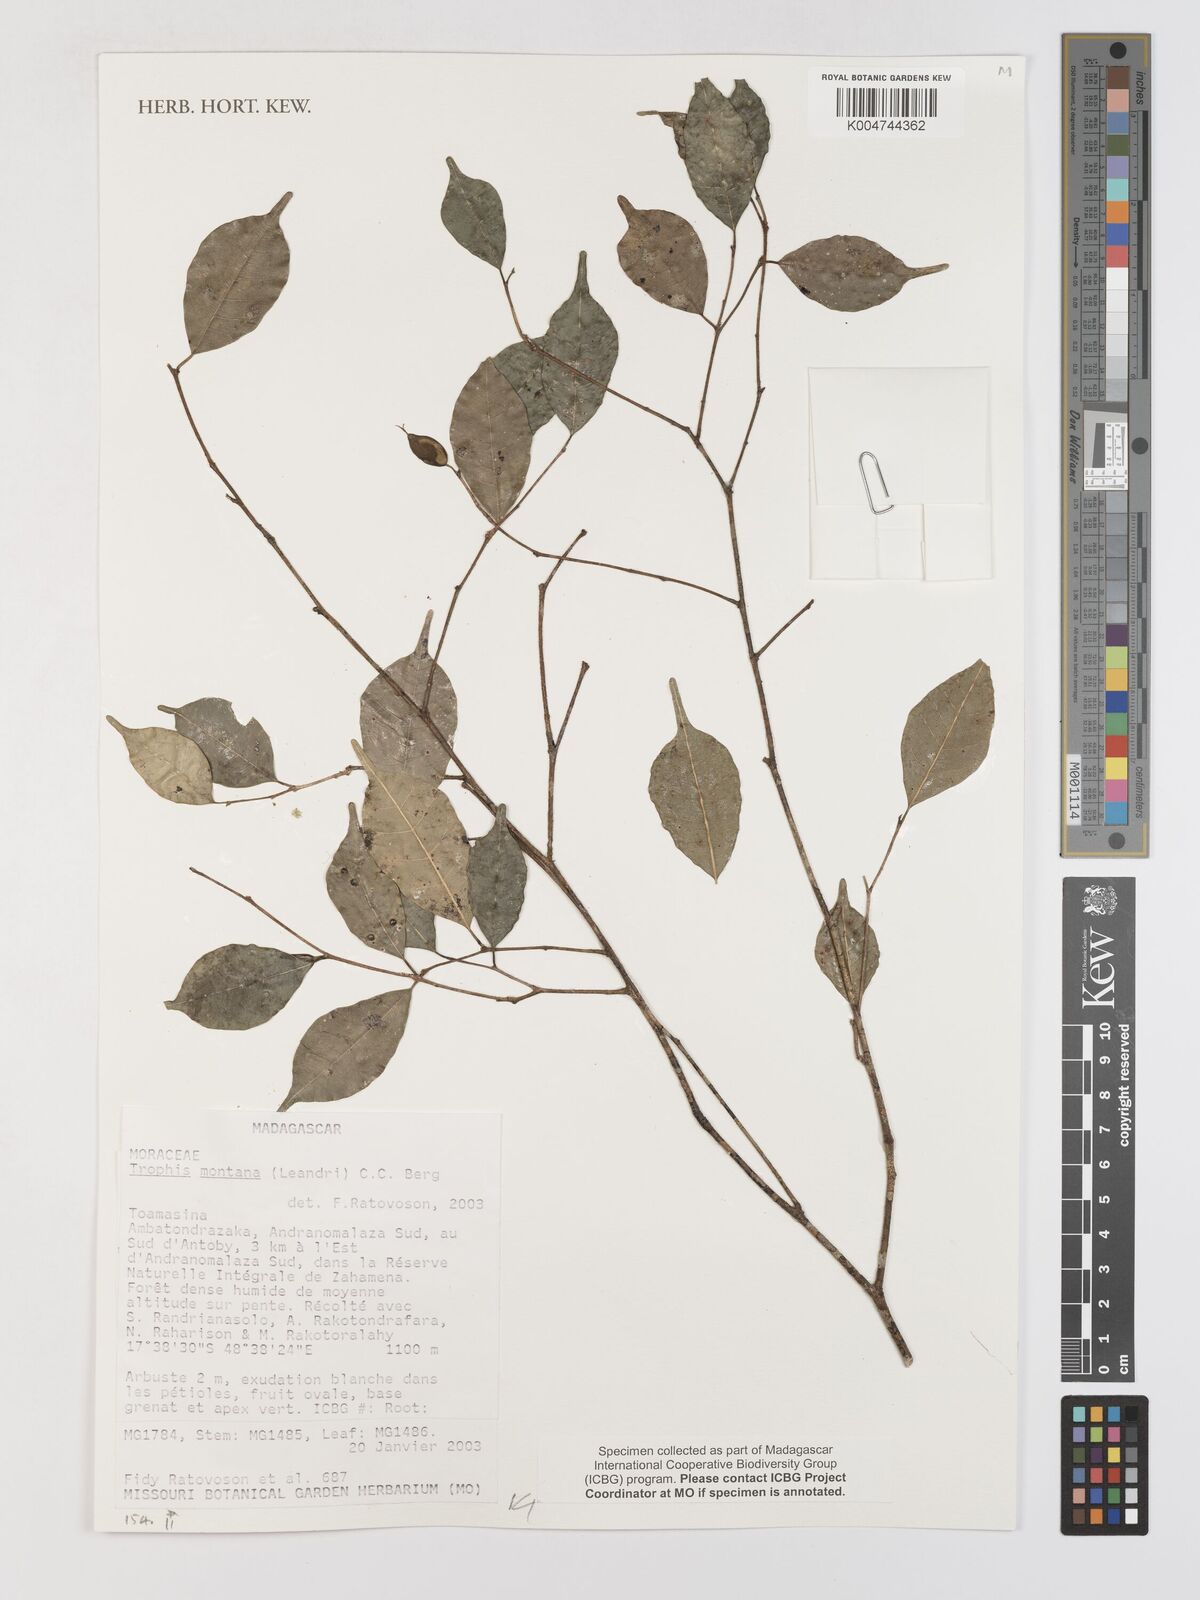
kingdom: Plantae
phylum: Tracheophyta
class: Magnoliopsida
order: Rosales
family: Moraceae
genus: Maillardia
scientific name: Maillardia montana
